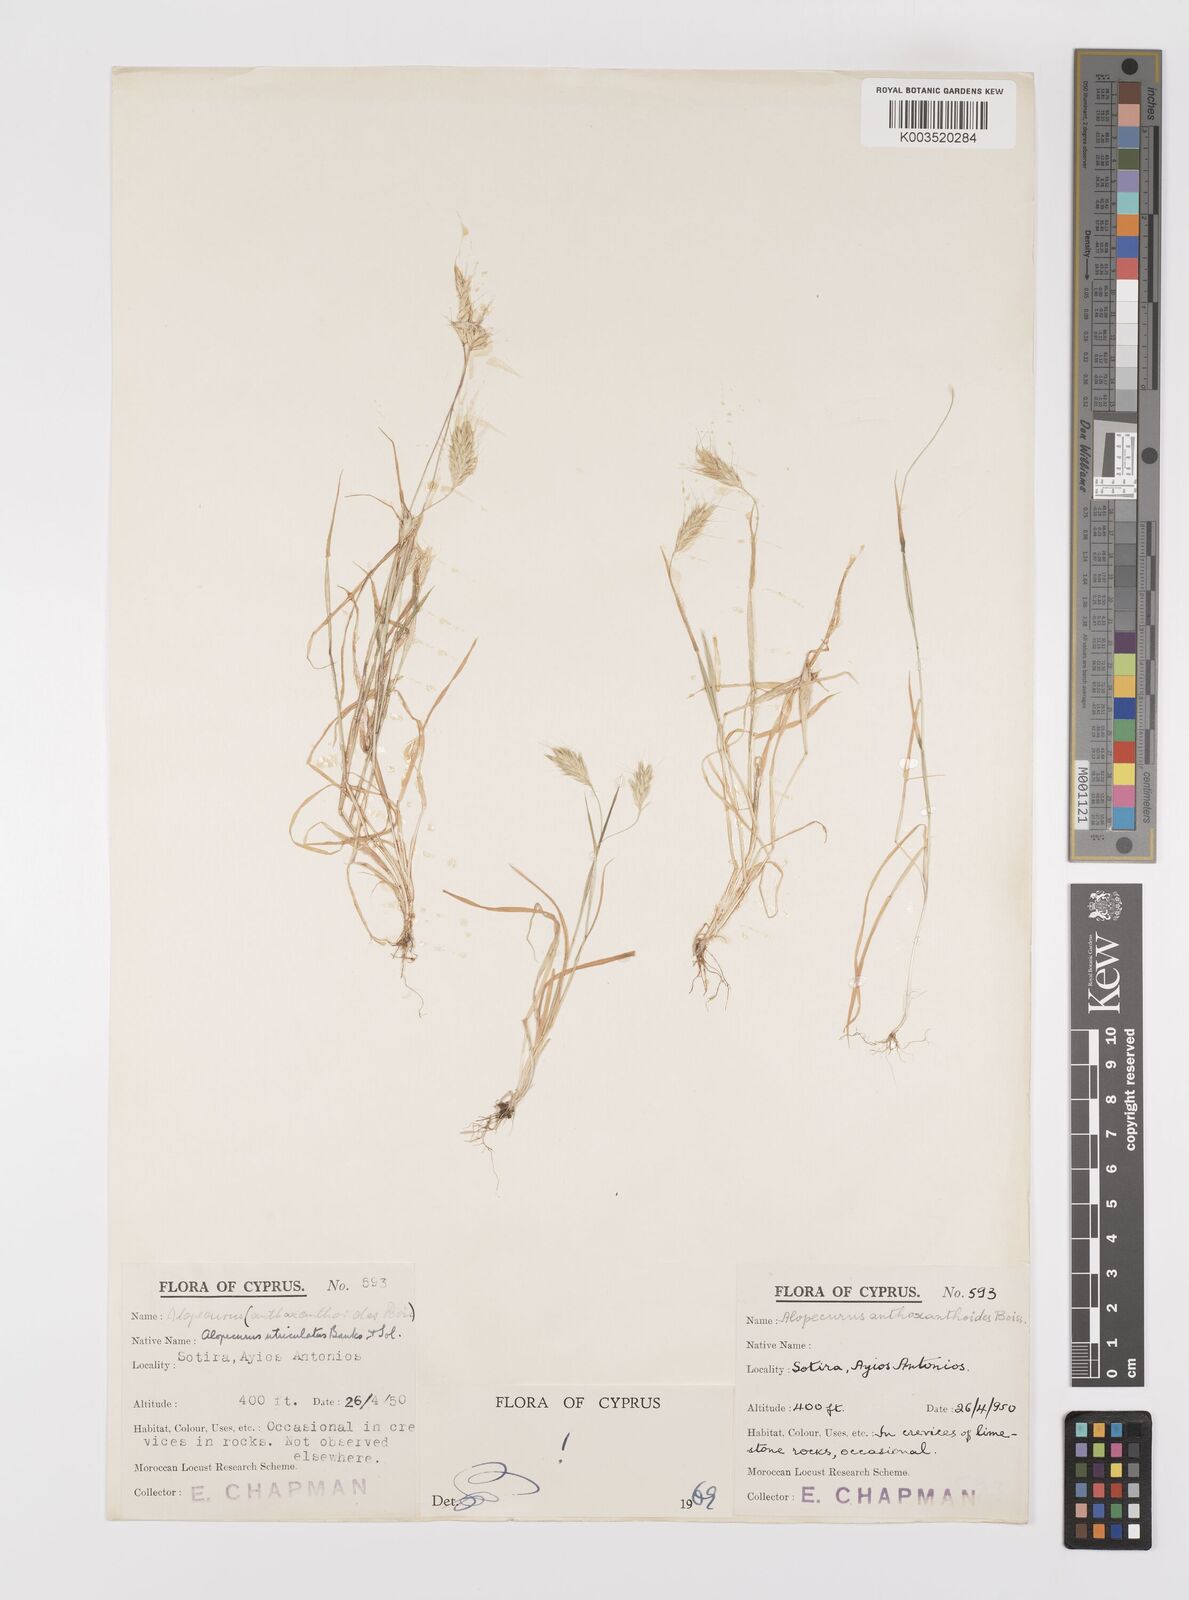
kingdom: Plantae
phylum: Tracheophyta
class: Liliopsida
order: Poales
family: Poaceae
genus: Alopecurus
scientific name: Alopecurus utriculatus
